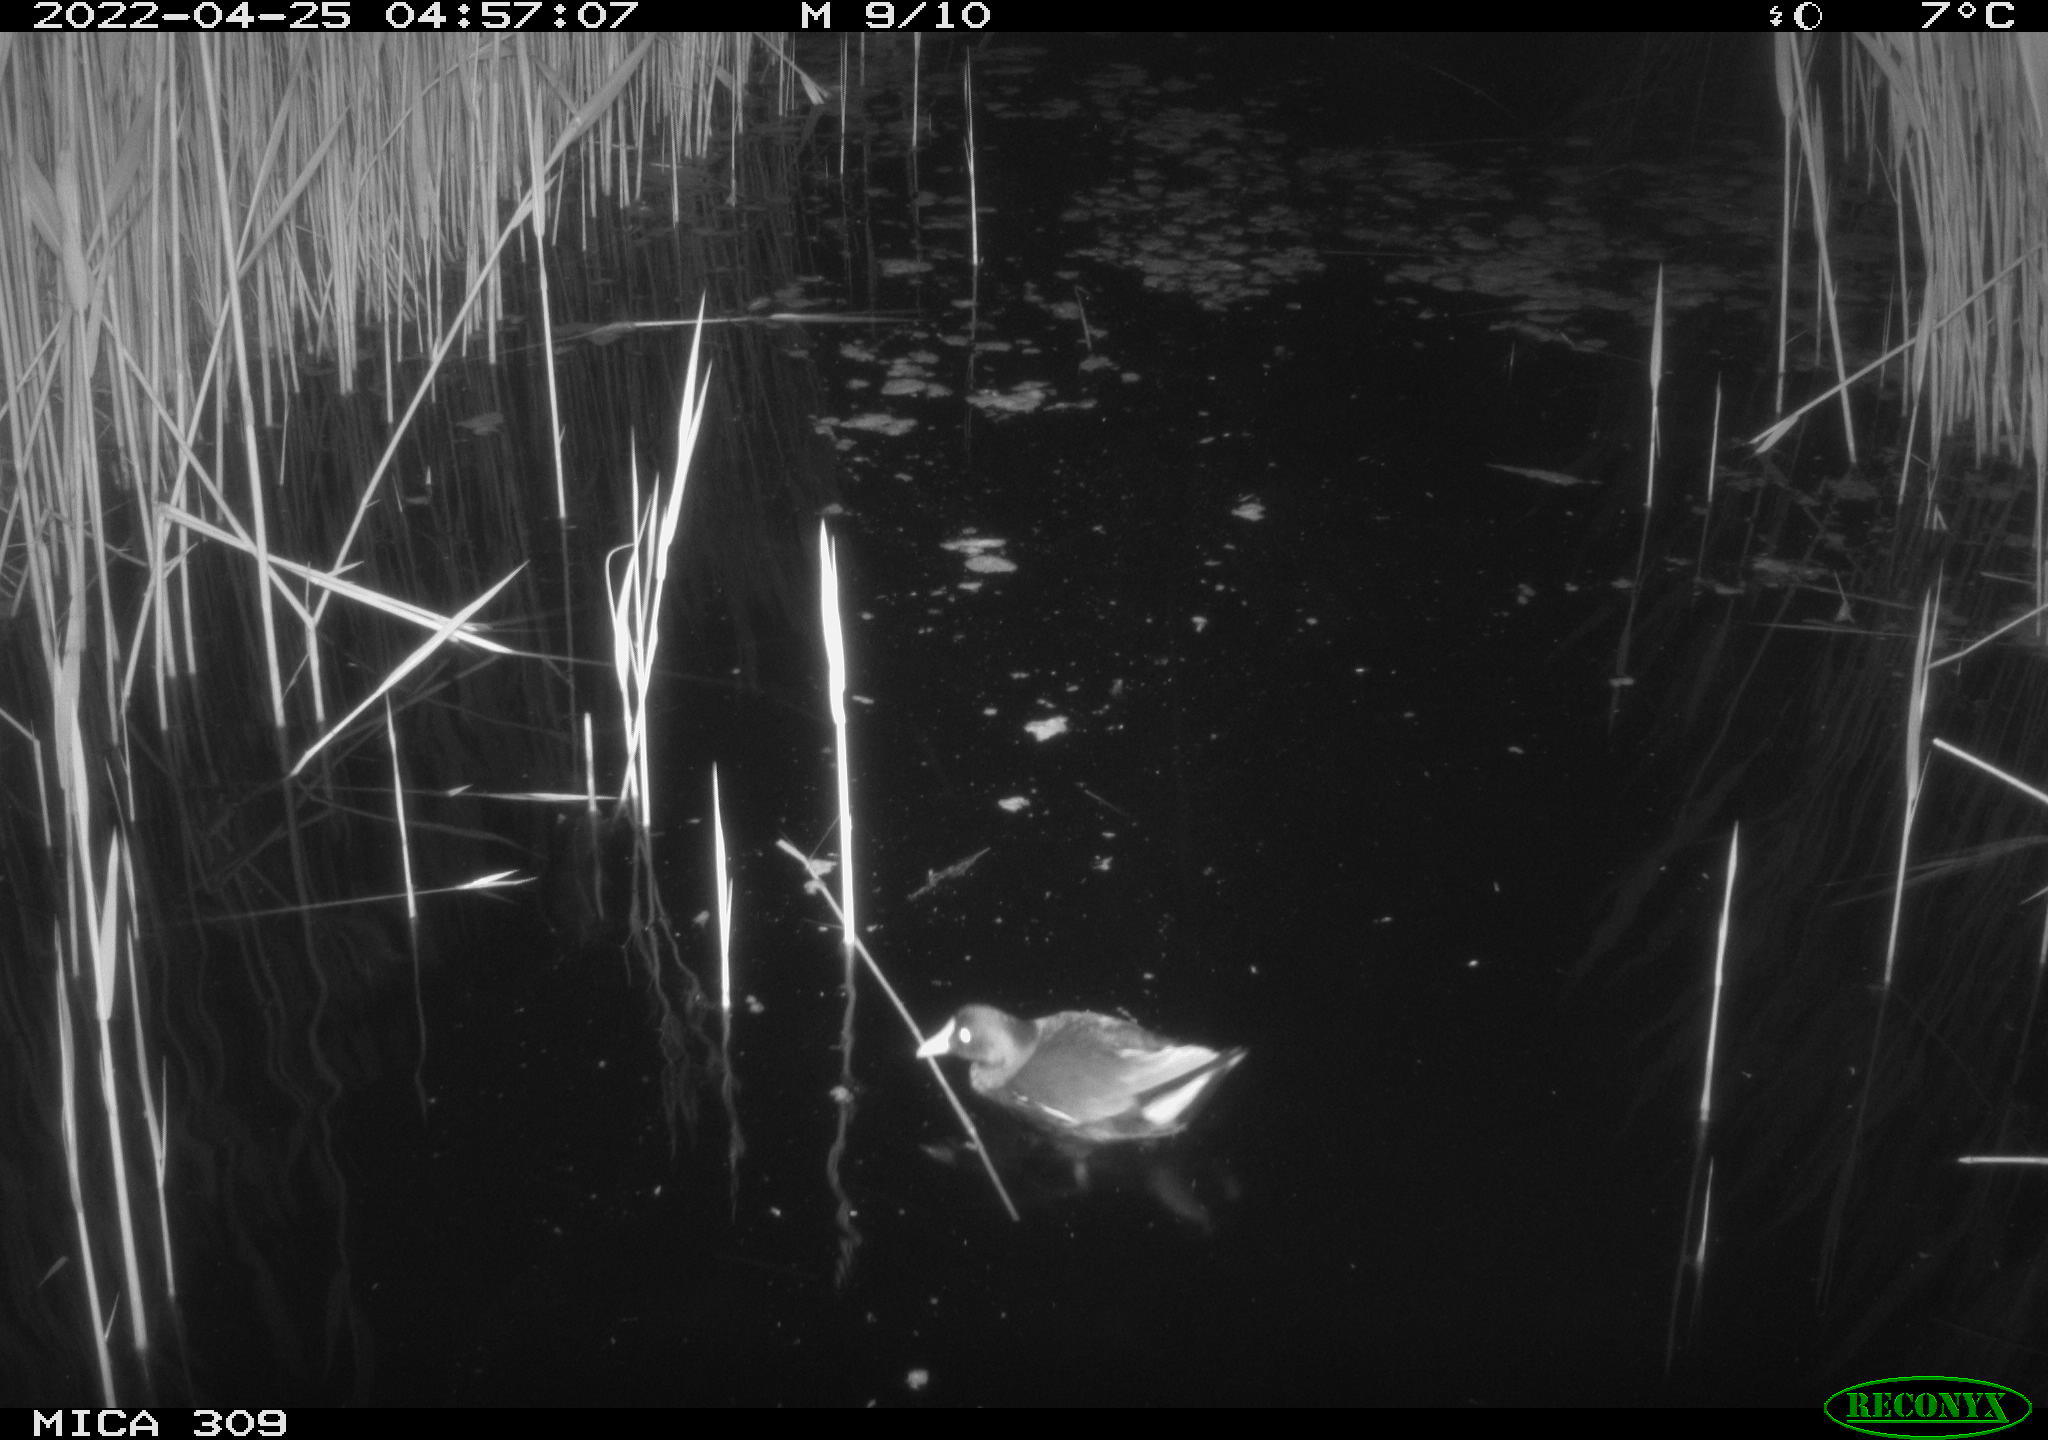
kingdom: Animalia
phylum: Chordata
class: Aves
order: Gruiformes
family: Rallidae
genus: Gallinula
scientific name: Gallinula chloropus
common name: Common moorhen
